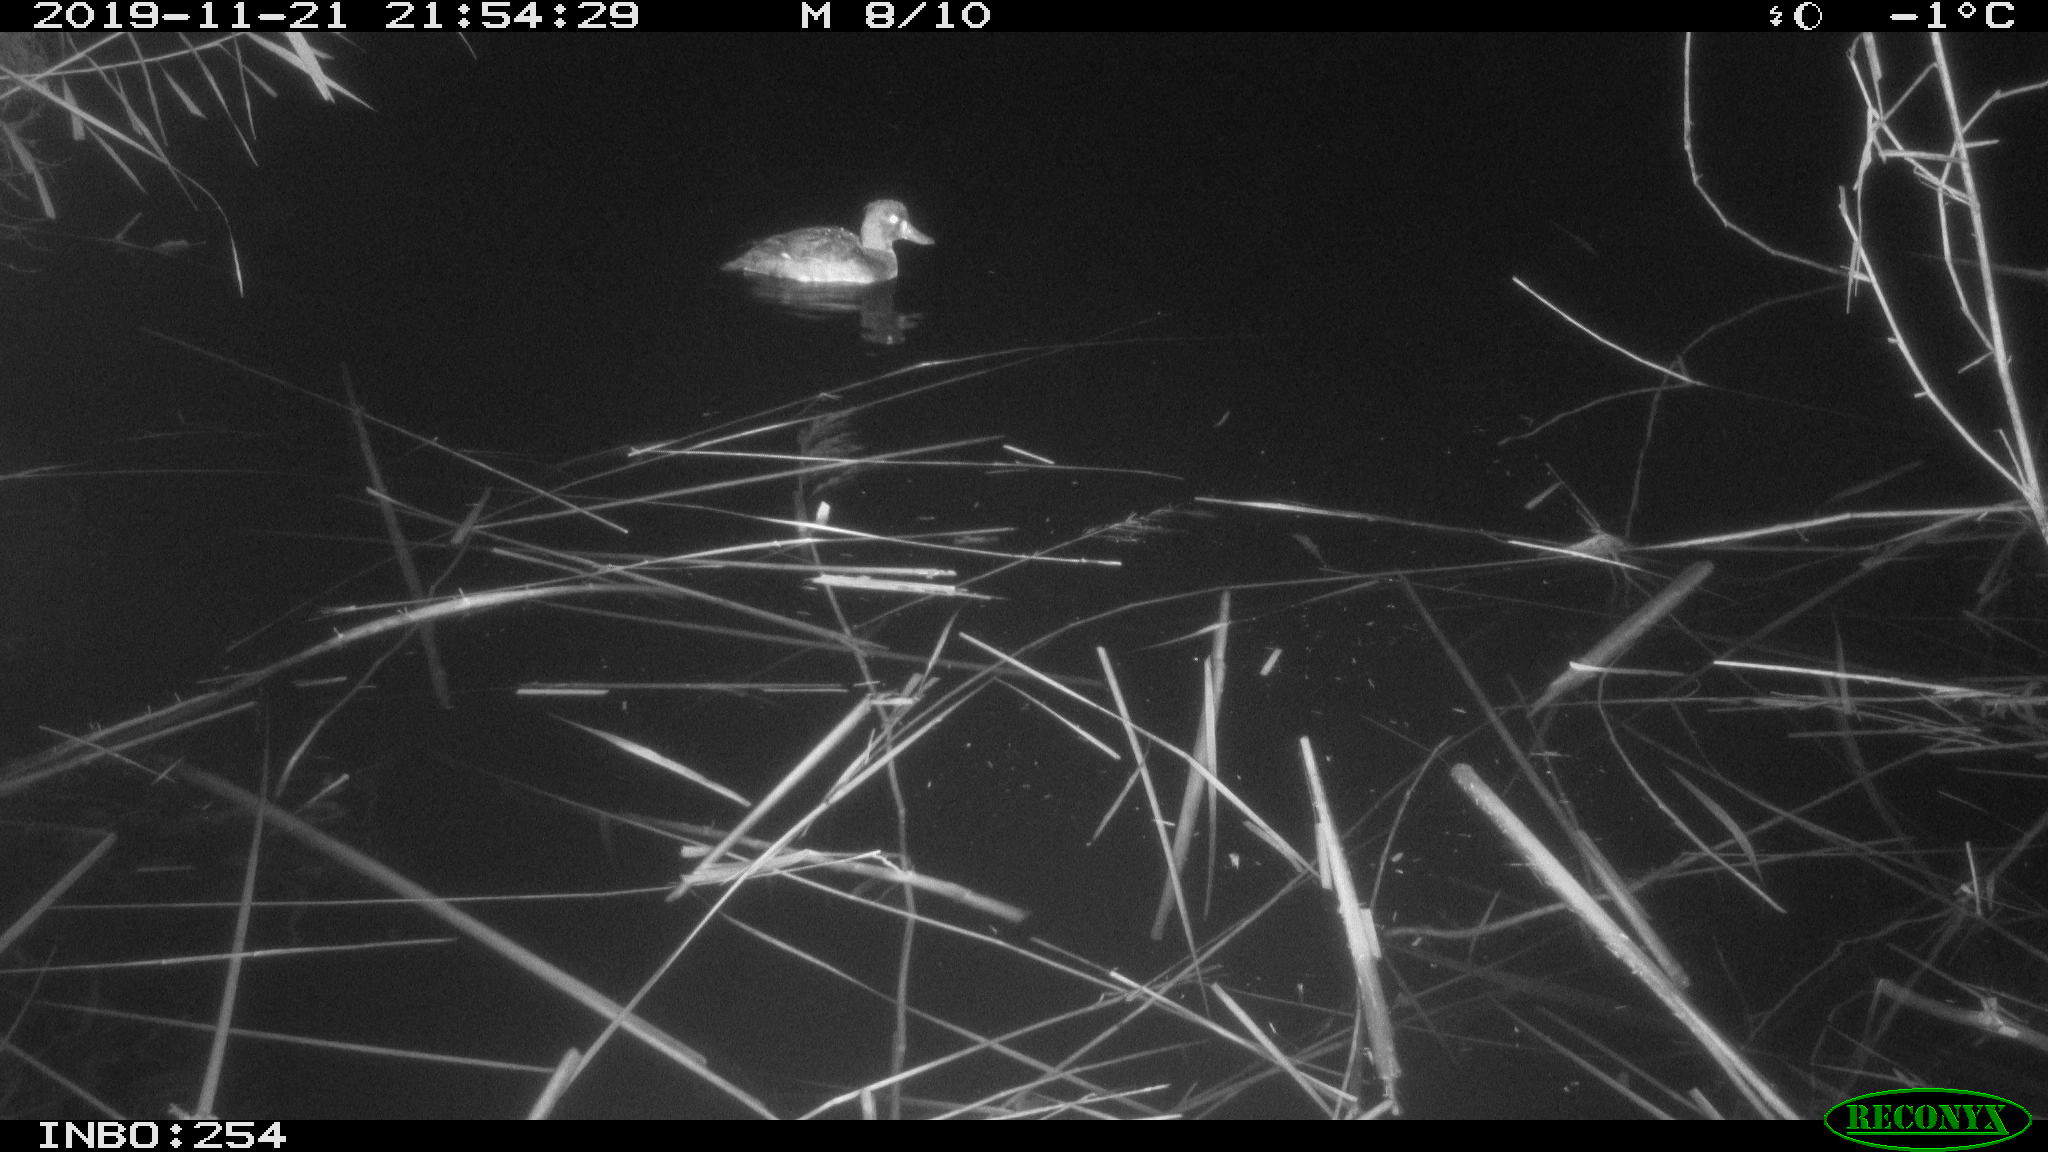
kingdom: Animalia
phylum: Chordata
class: Aves
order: Anseriformes
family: Anatidae
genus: Aythya
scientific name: Aythya fuligula
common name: Tufted duck
